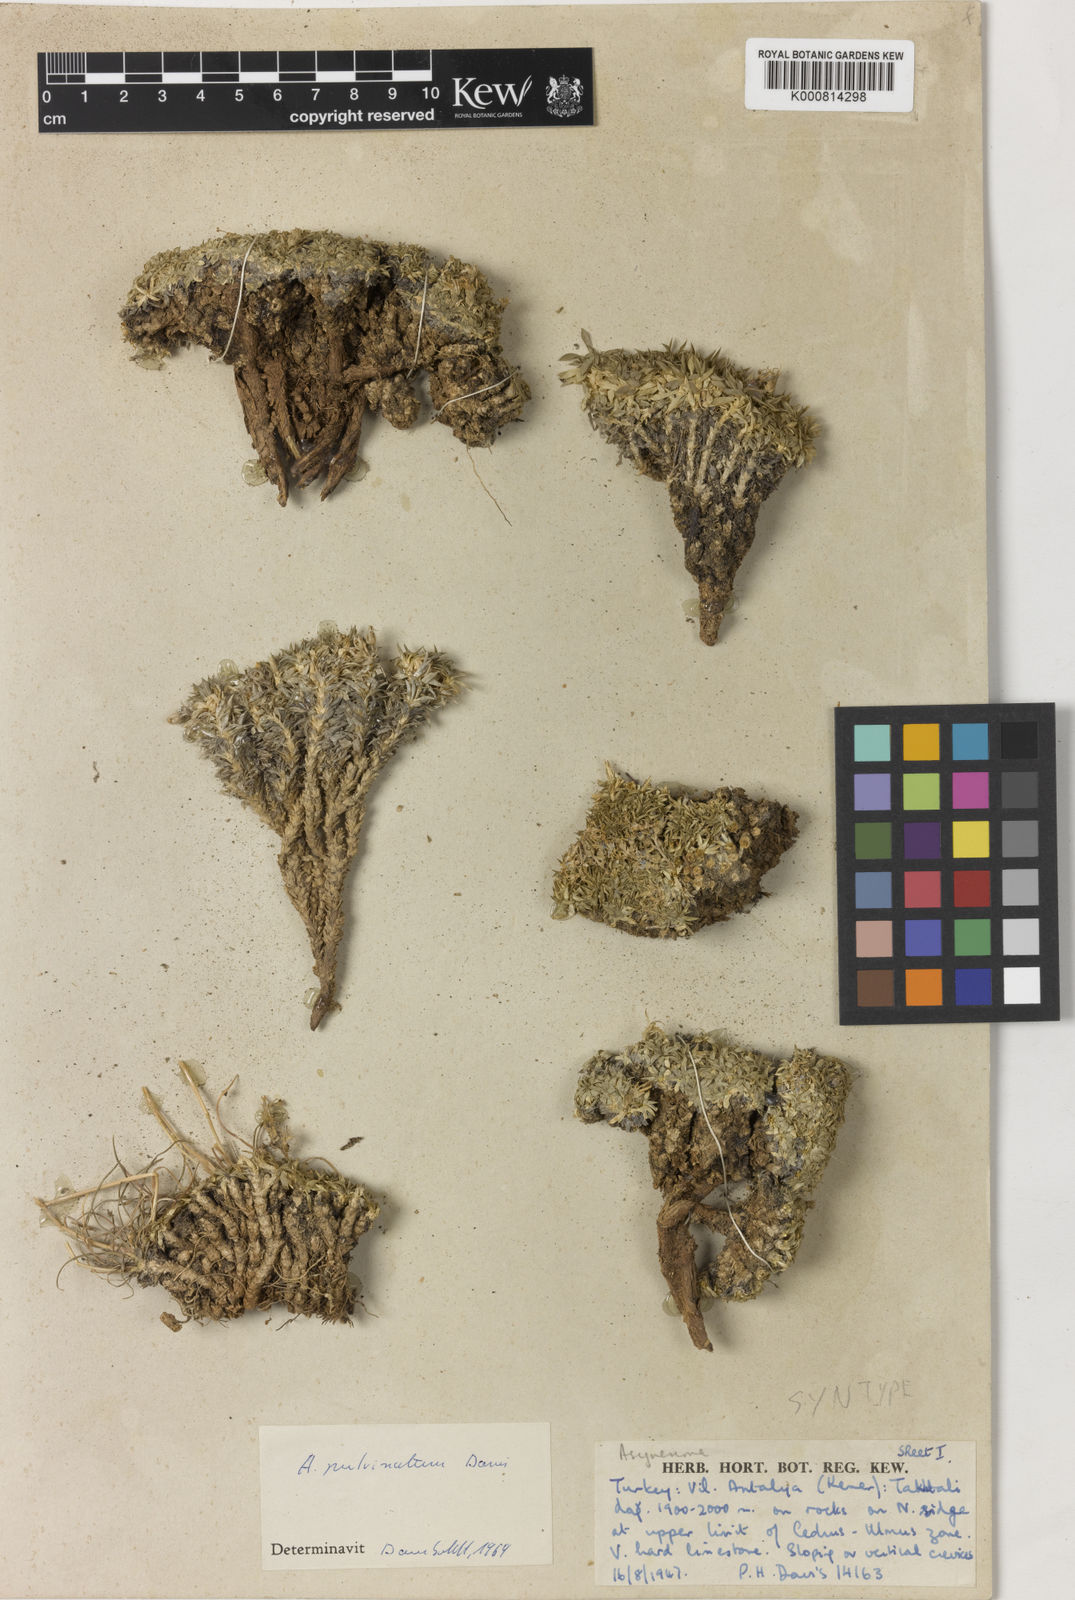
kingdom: Plantae
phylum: Tracheophyta
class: Magnoliopsida
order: Asterales
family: Campanulaceae
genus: Asyneuma
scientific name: Asyneuma pulvinatum
